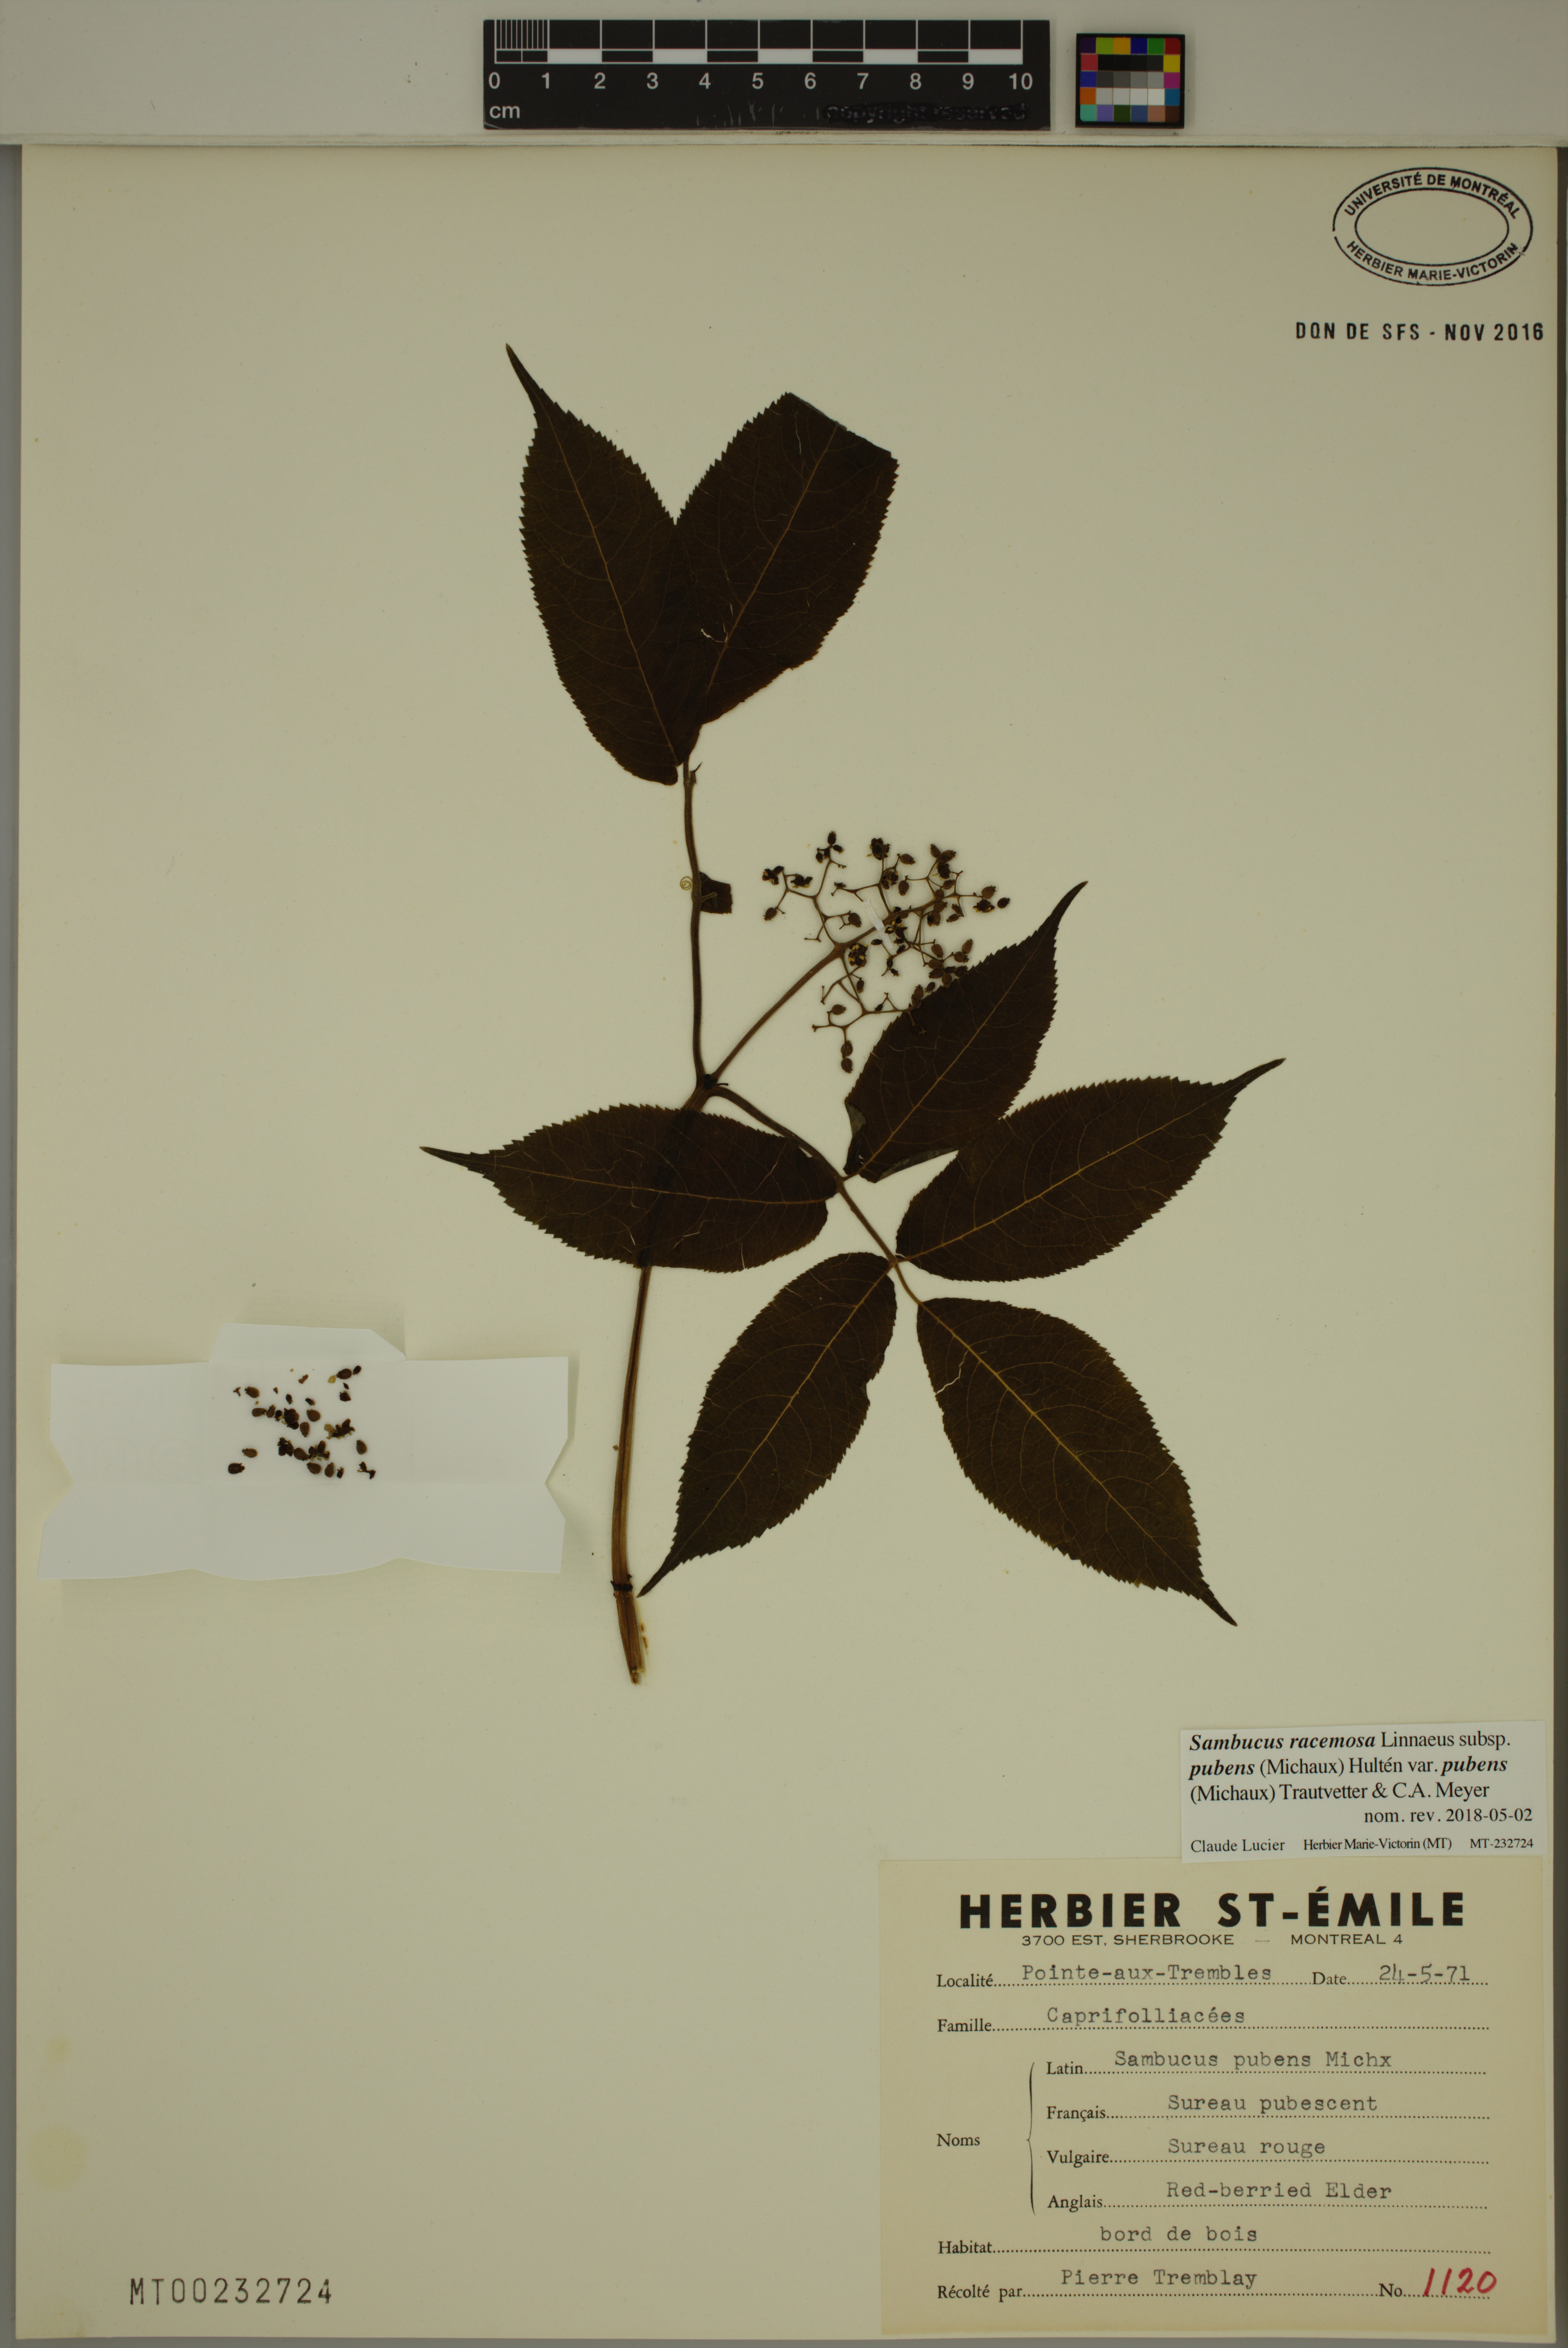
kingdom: Plantae
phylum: Tracheophyta
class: Magnoliopsida
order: Dipsacales
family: Viburnaceae
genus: Sambucus
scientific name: Sambucus racemosa
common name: Red-berried elder
